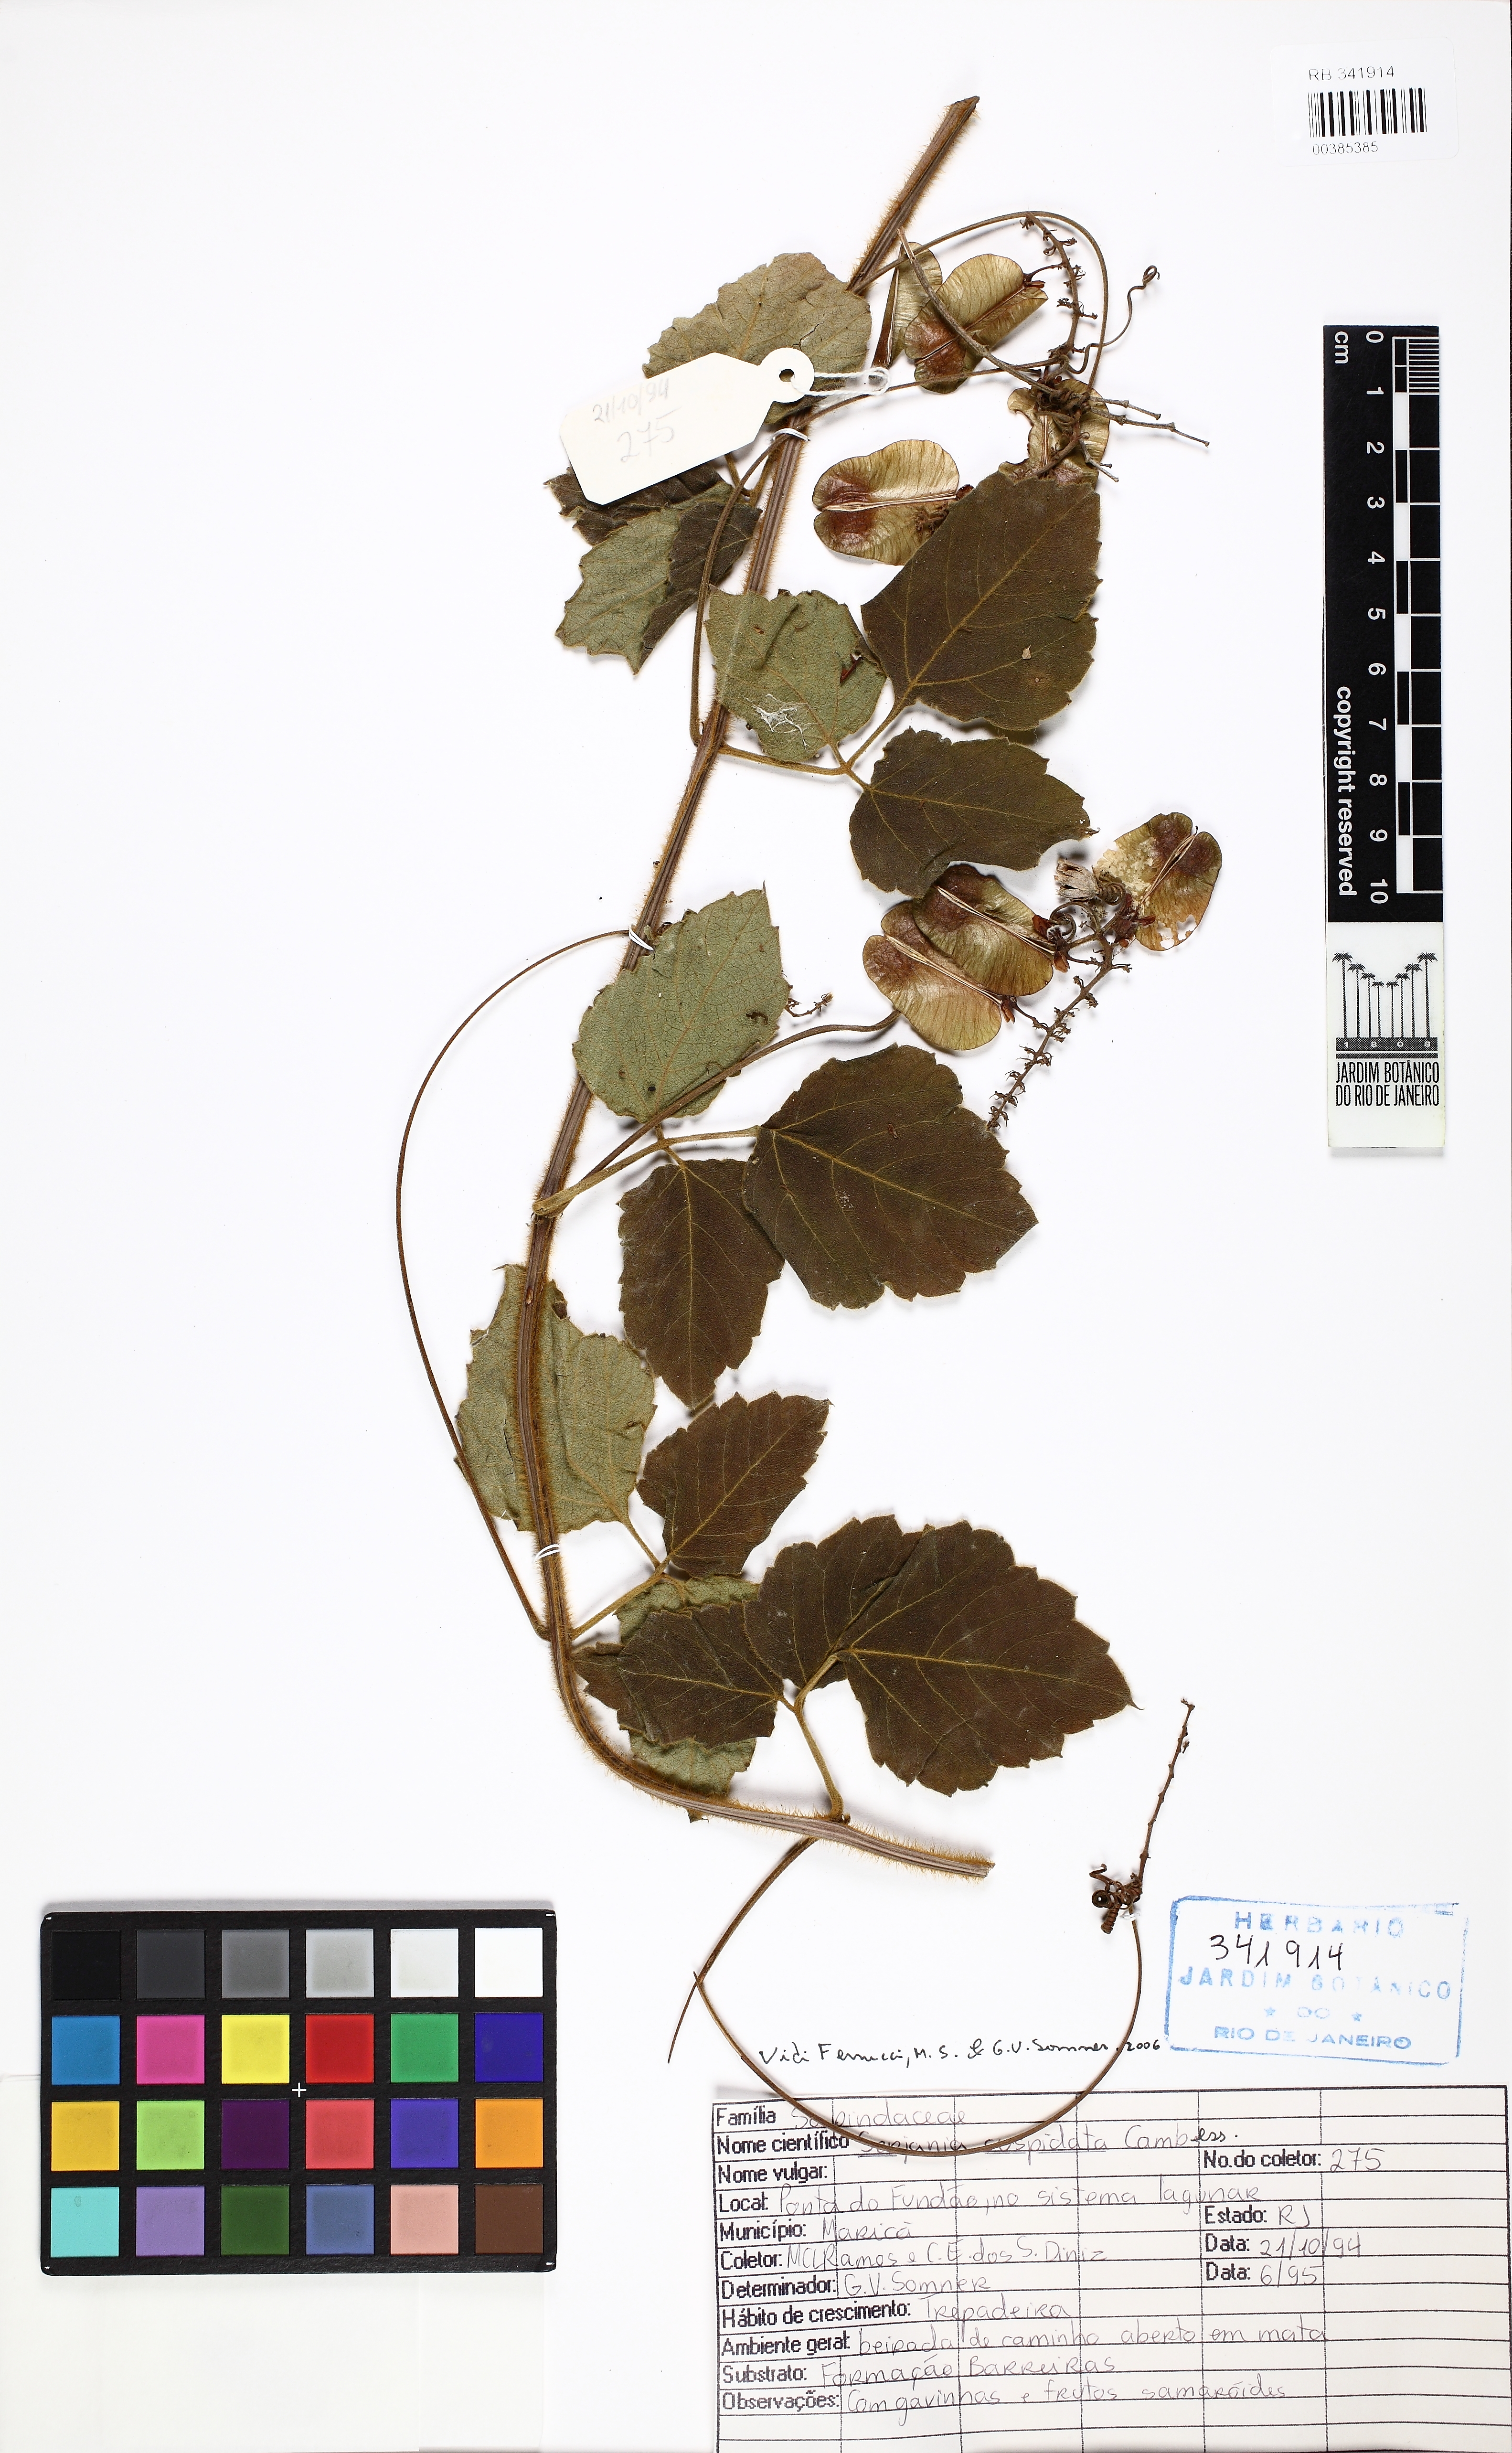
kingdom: Plantae
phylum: Tracheophyta
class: Magnoliopsida
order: Sapindales
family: Sapindaceae
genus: Serjania
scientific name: Serjania ferruginea
